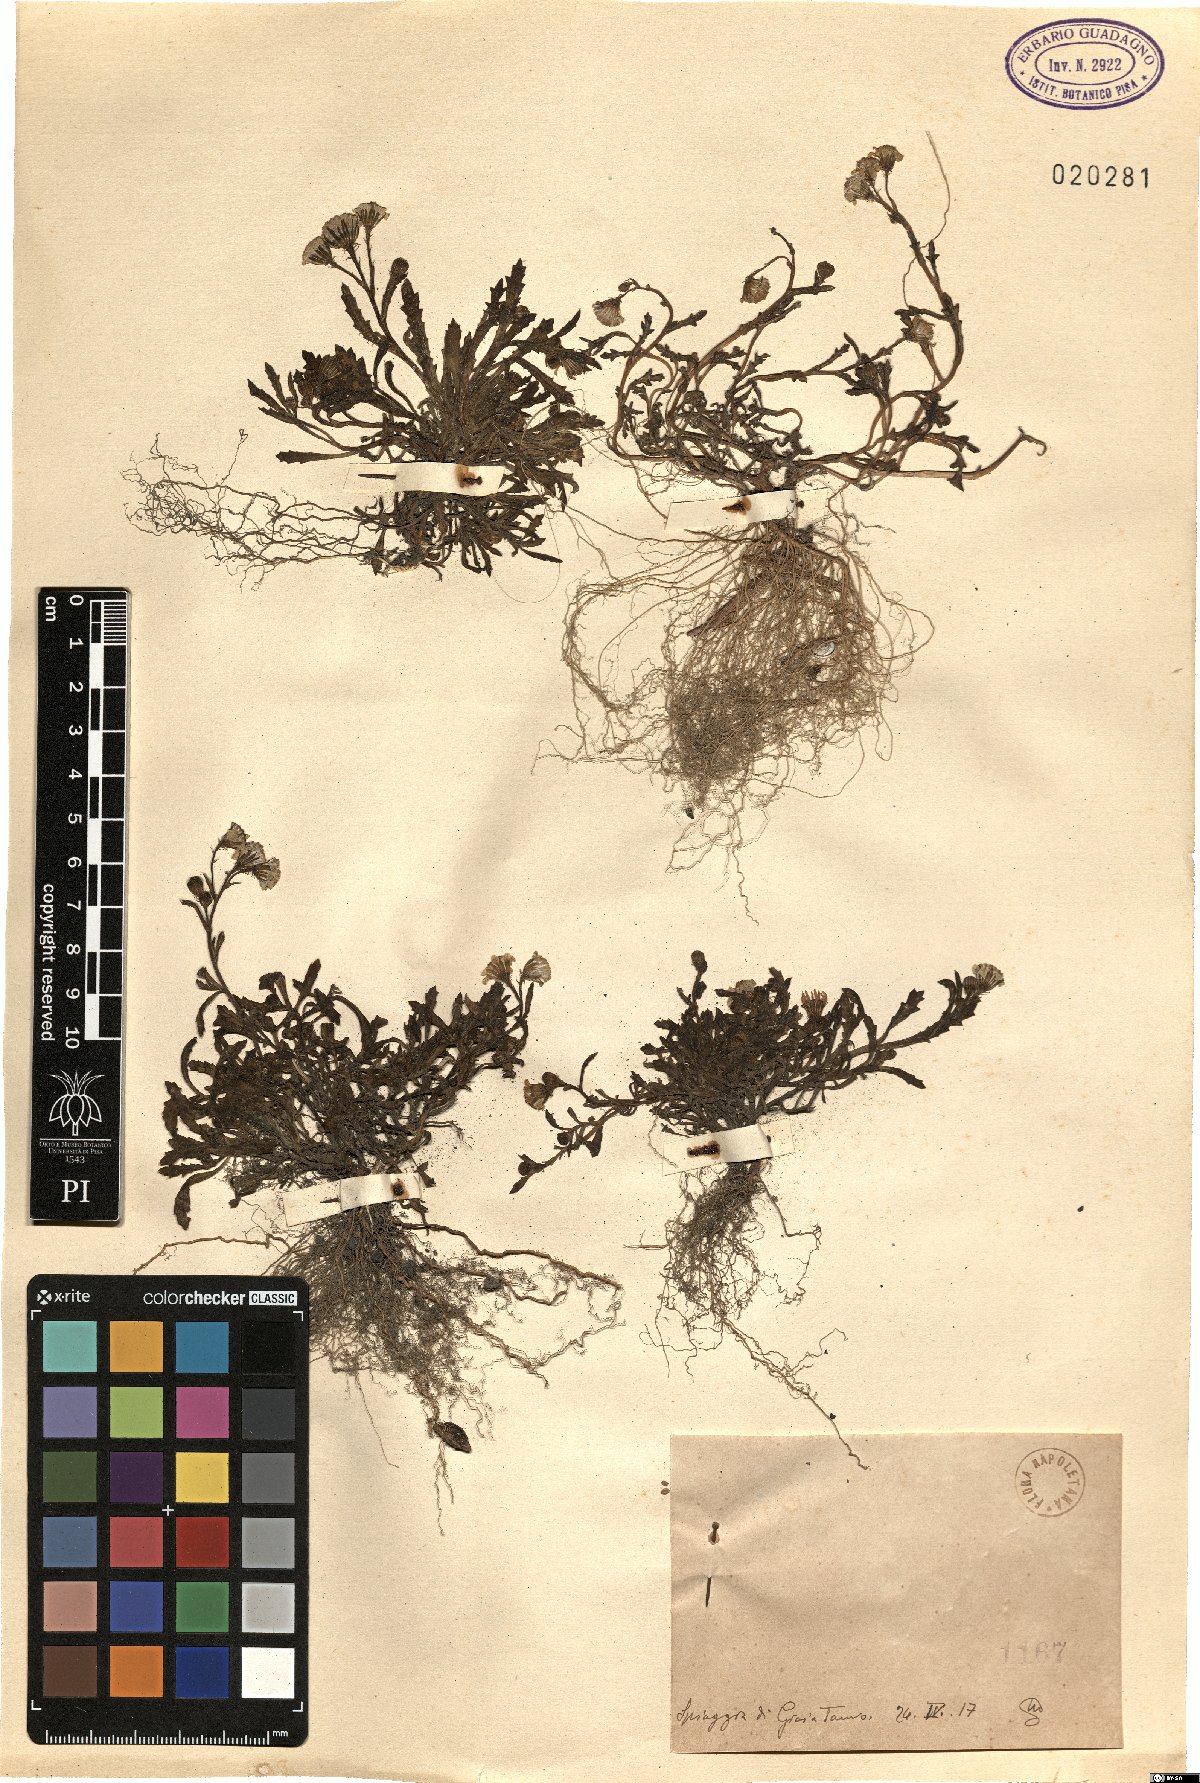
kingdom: Plantae
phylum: Tracheophyta
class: Magnoliopsida
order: Asterales
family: Asteraceae
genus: Senecio
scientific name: Senecio
